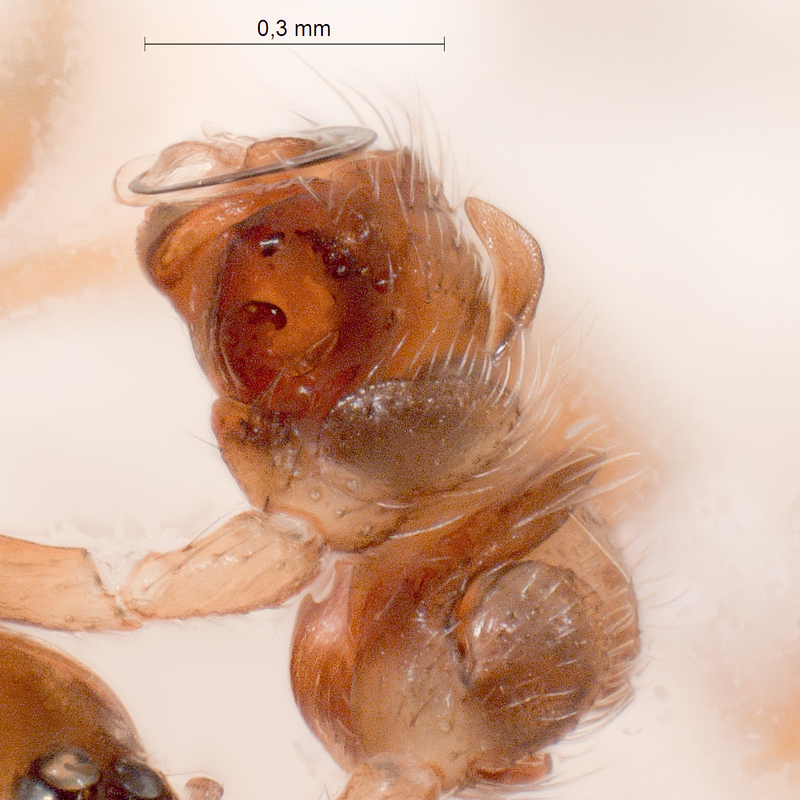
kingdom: Animalia
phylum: Arthropoda
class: Arachnida
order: Araneae
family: Linyphiidae
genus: Walckenaeria
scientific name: Walckenaeria antica
